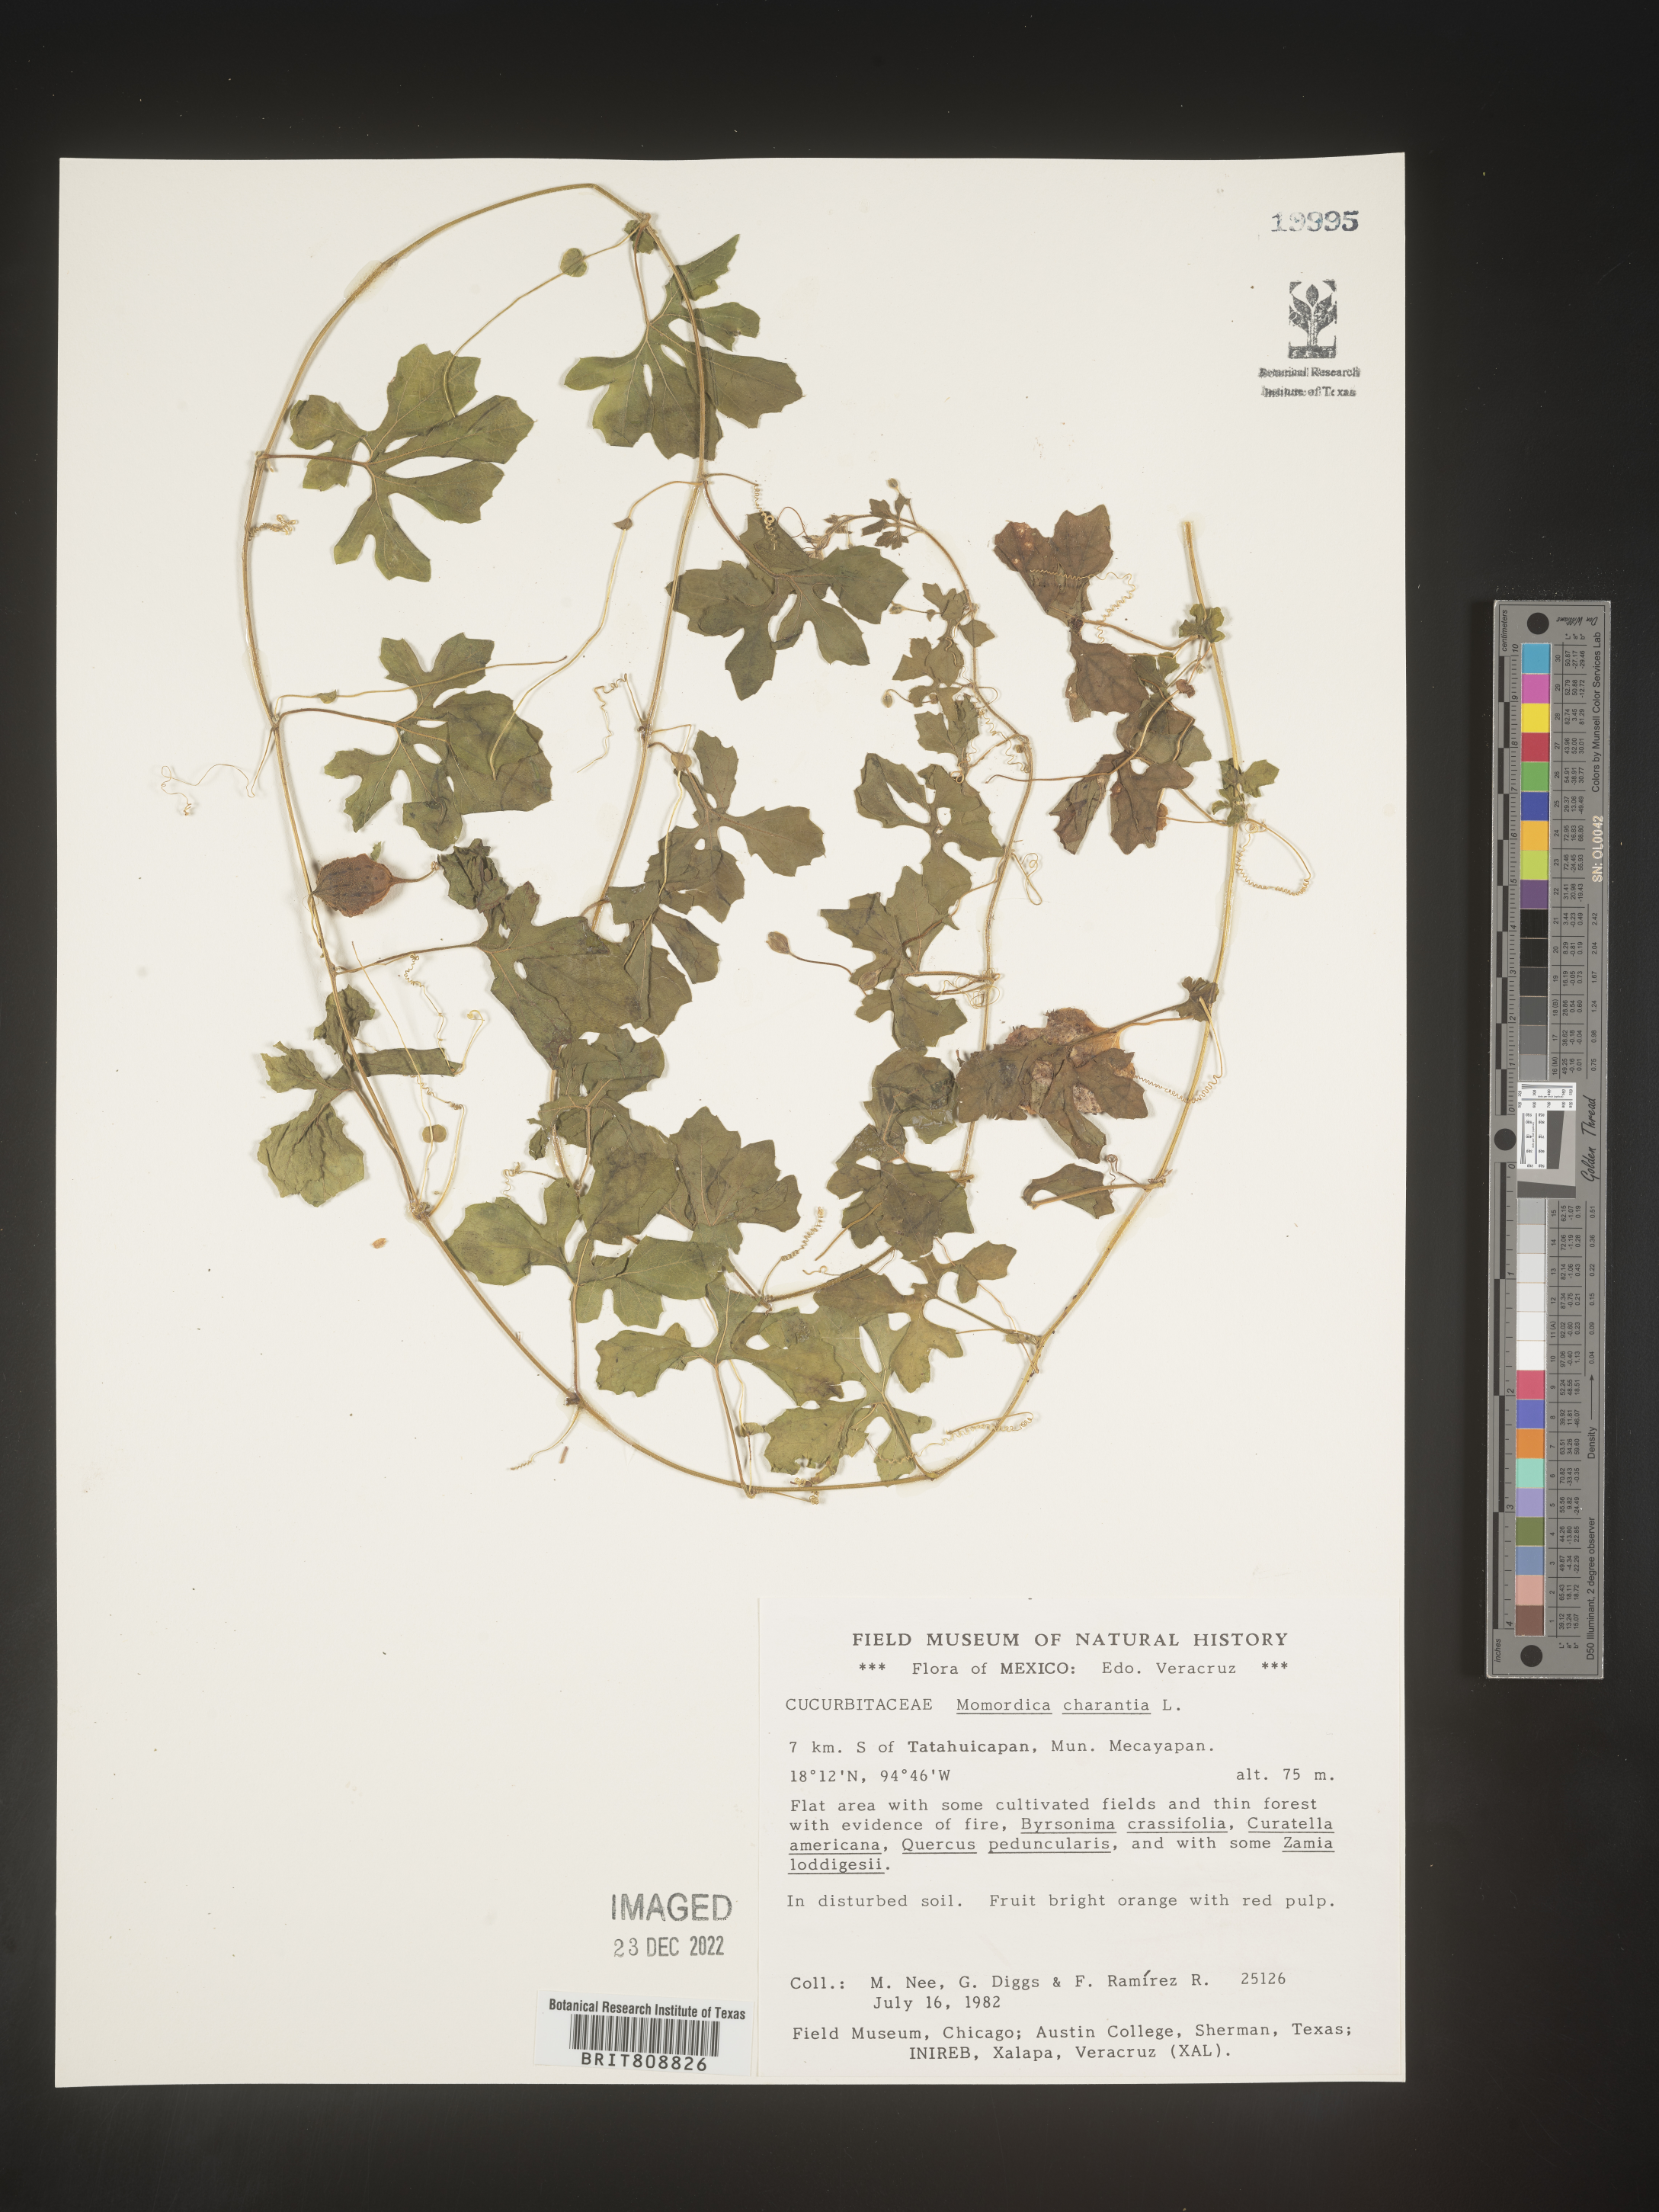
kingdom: Plantae
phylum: Tracheophyta
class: Magnoliopsida
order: Cucurbitales
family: Cucurbitaceae
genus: Momordica
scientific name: Momordica
